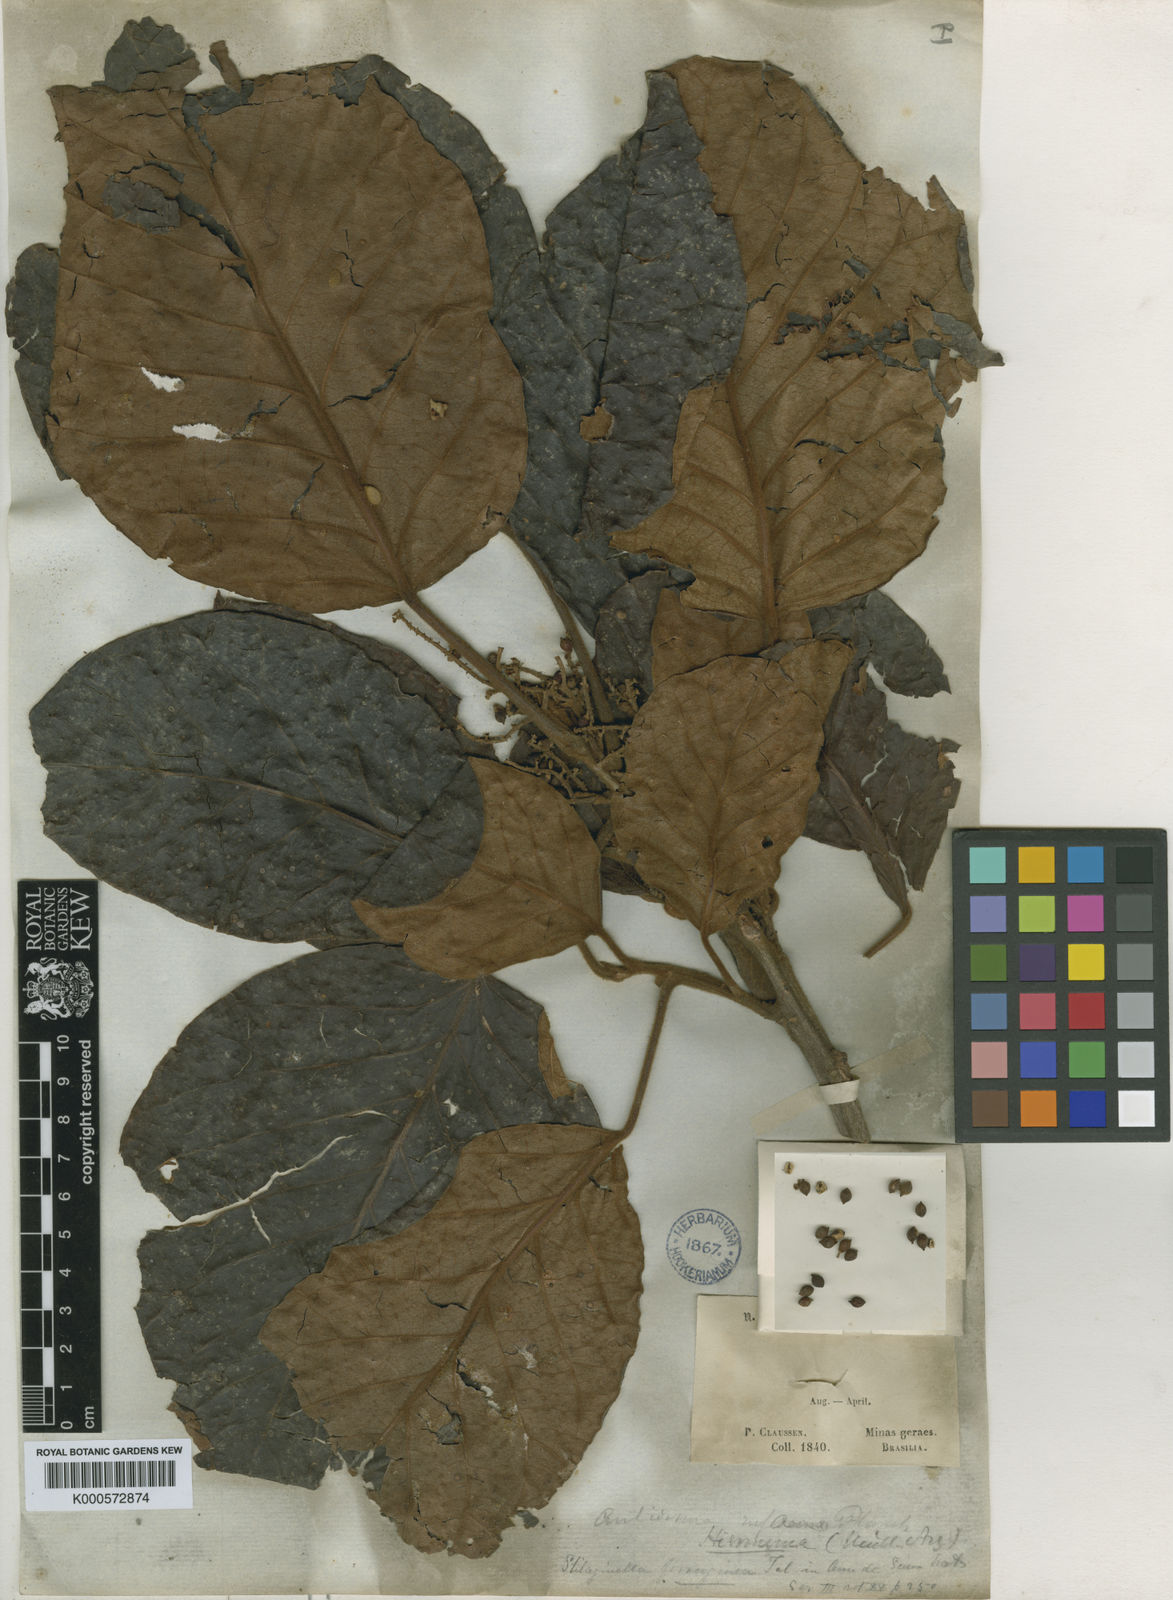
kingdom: Plantae
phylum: Tracheophyta
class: Magnoliopsida
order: Malpighiales
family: Phyllanthaceae
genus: Hieronyma
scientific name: Hieronyma alchorneoides
